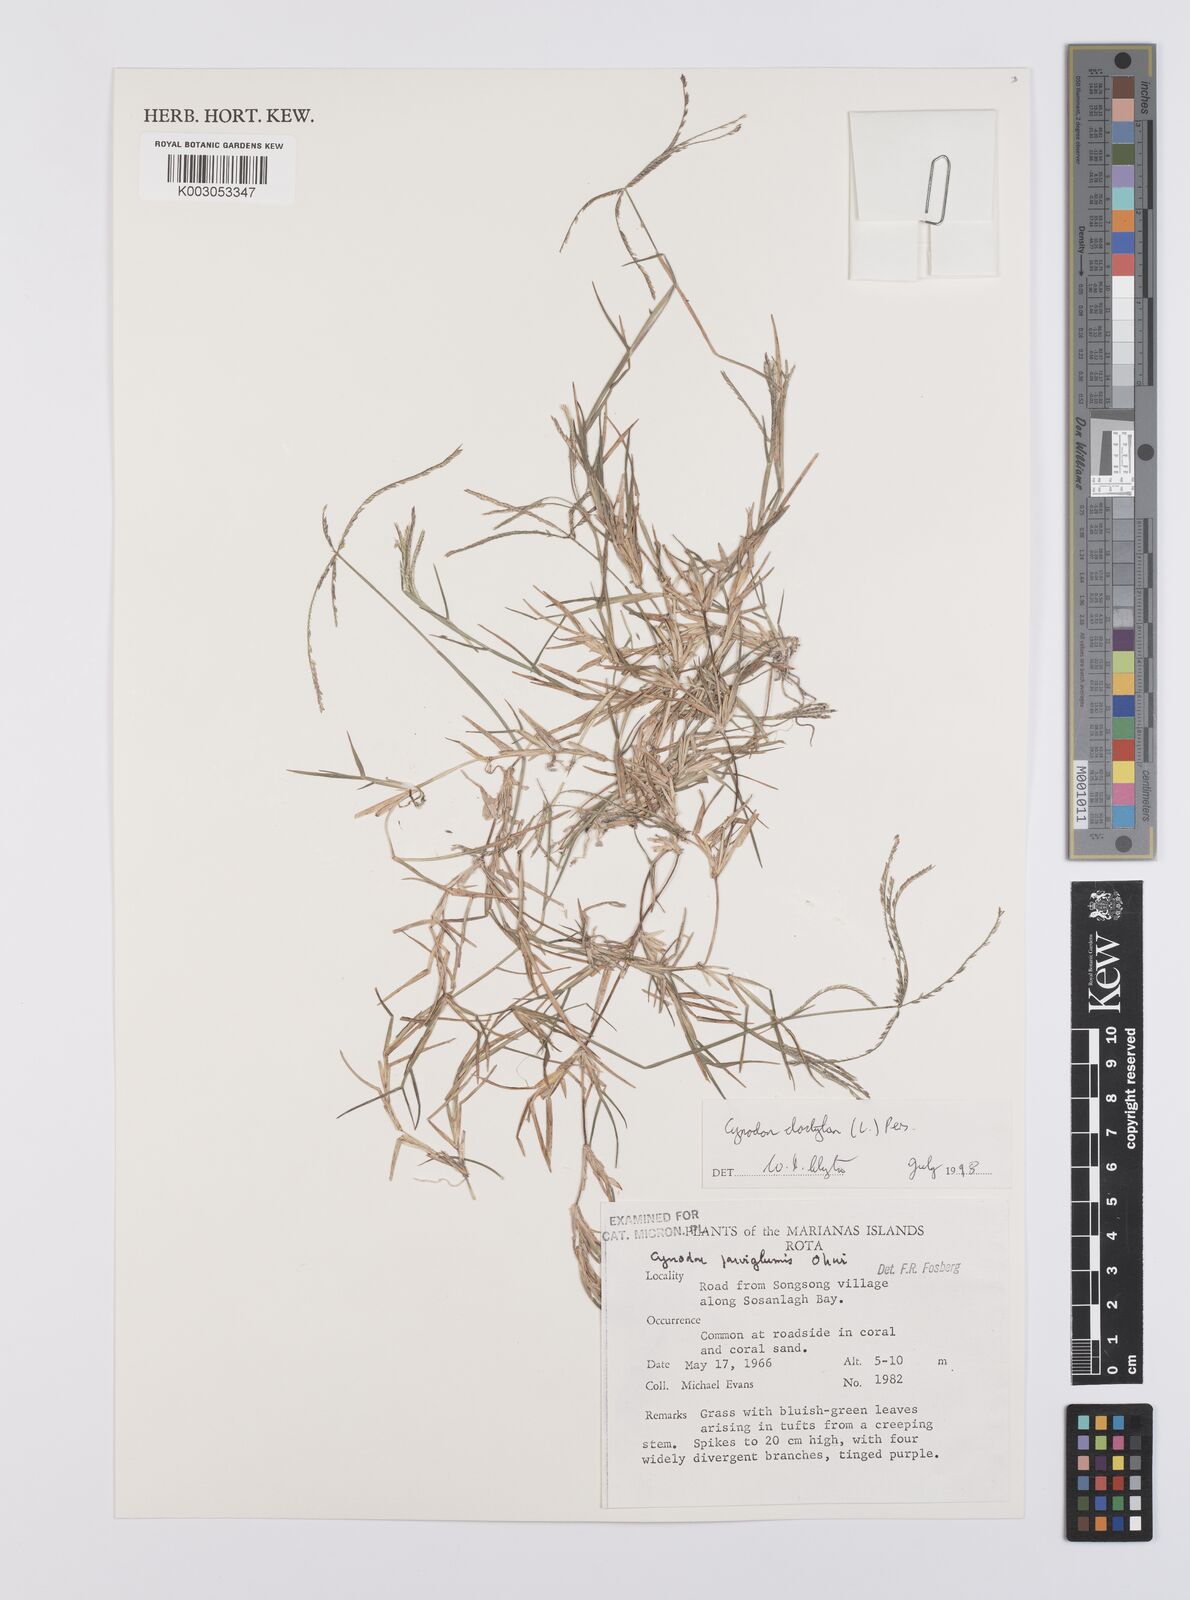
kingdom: Plantae
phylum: Tracheophyta
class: Liliopsida
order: Poales
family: Poaceae
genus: Cynodon
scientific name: Cynodon dactylon
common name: Bermuda grass
